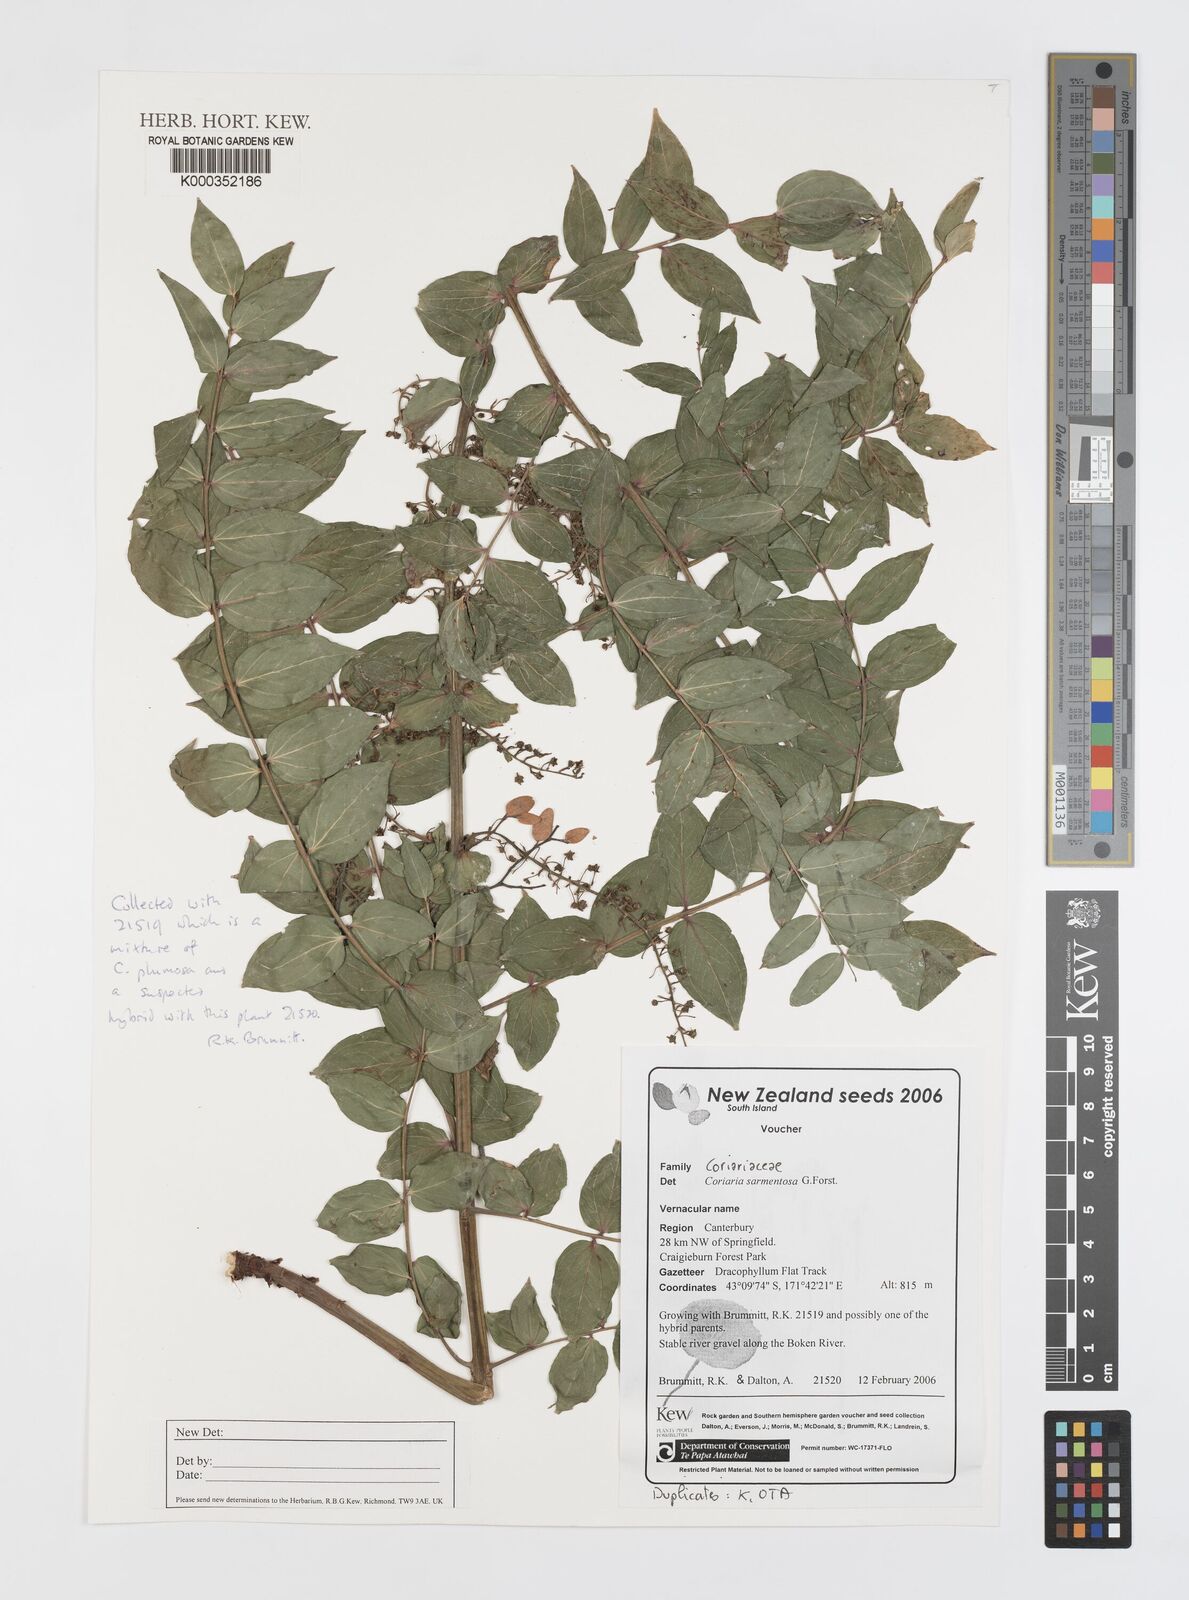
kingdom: Plantae
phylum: Tracheophyta
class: Magnoliopsida
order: Cucurbitales
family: Coriariaceae
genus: Coriaria
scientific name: Coriaria sarmentosa
